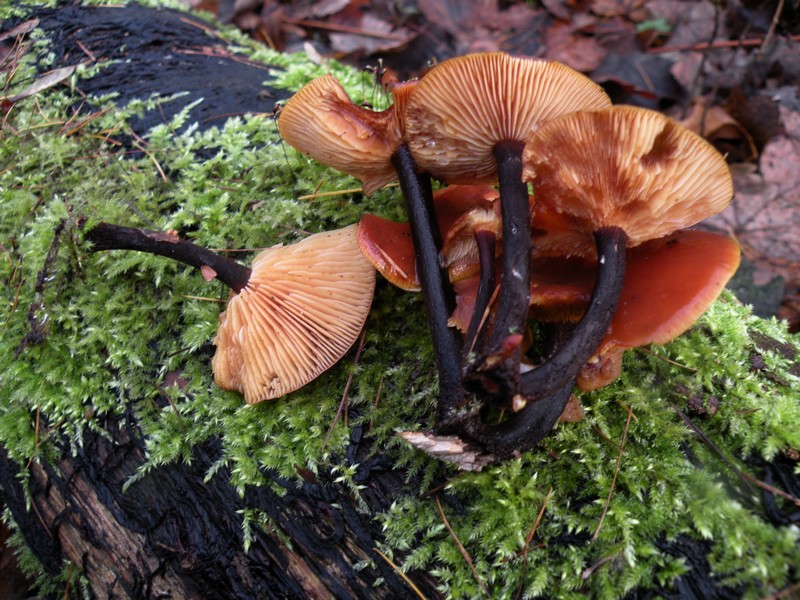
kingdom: Fungi
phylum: Basidiomycota
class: Agaricomycetes
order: Agaricales
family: Physalacriaceae
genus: Flammulina
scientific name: Flammulina velutipes
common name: gul fløjlsfod
